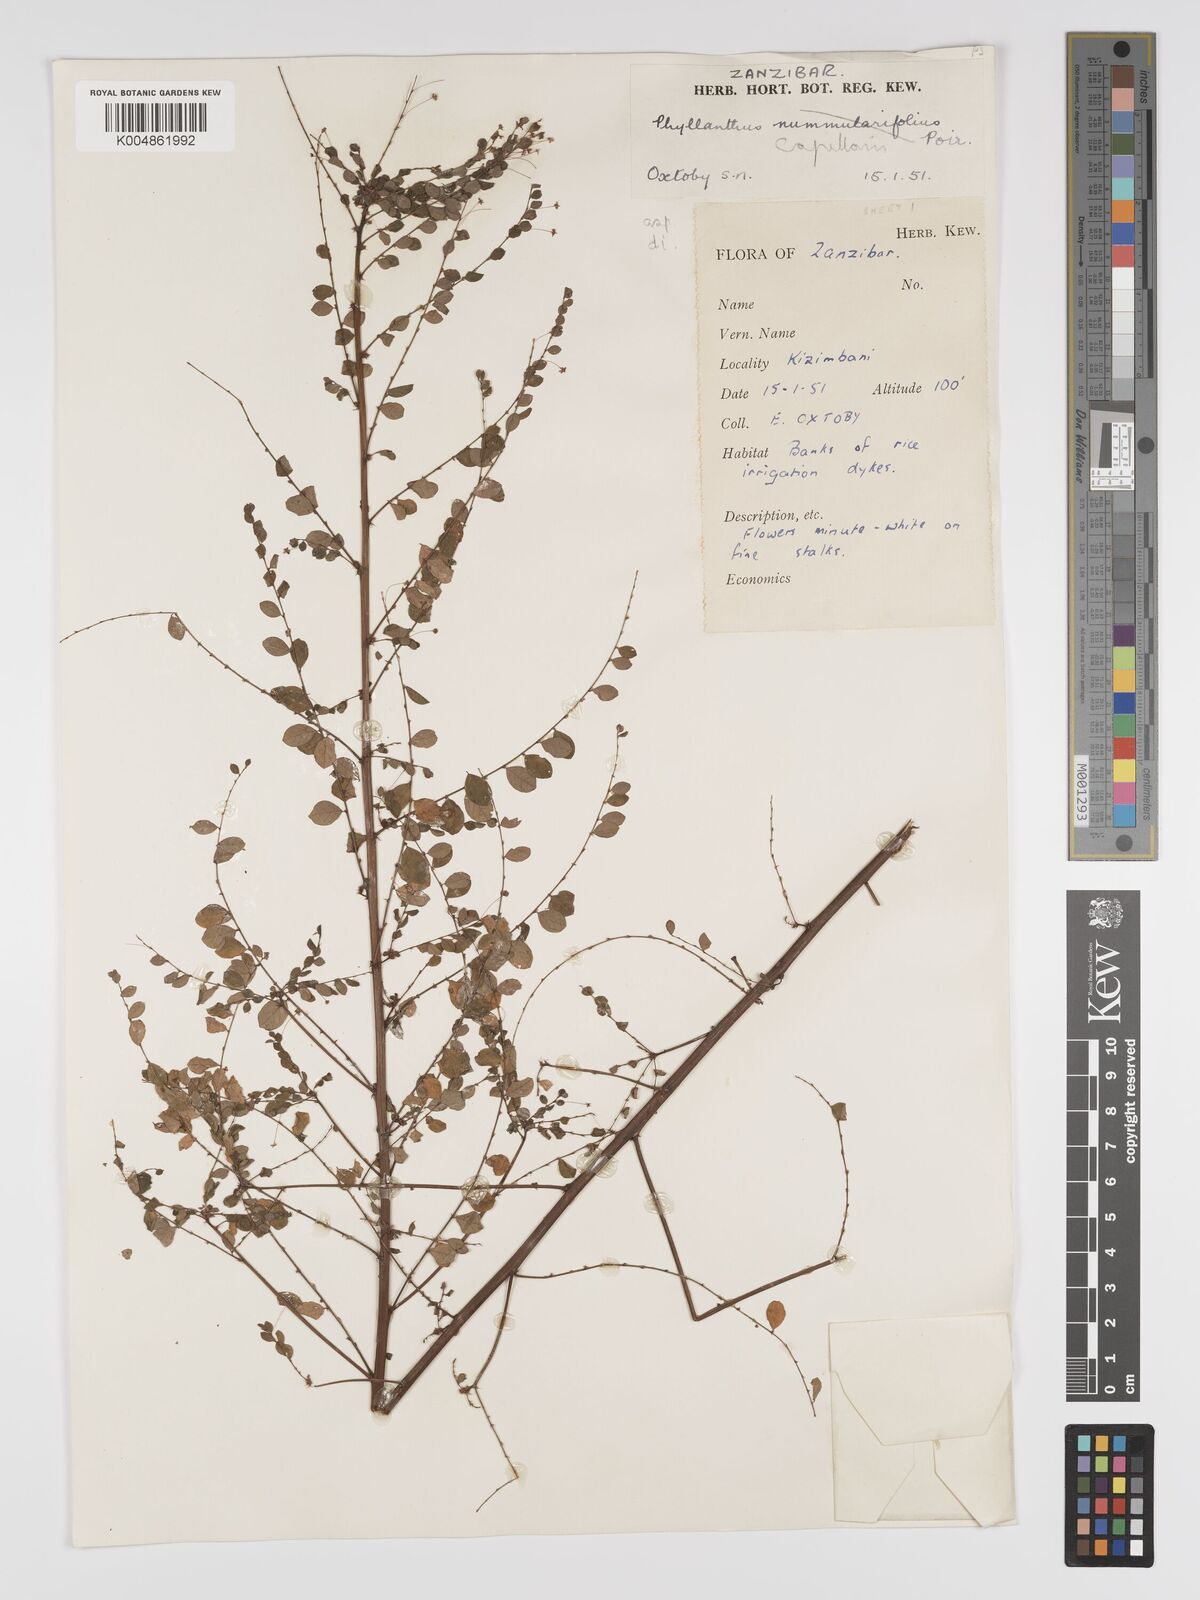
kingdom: Plantae
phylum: Tracheophyta
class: Magnoliopsida
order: Malpighiales
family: Phyllanthaceae
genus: Phyllanthus
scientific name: Phyllanthus nummulariifolius
